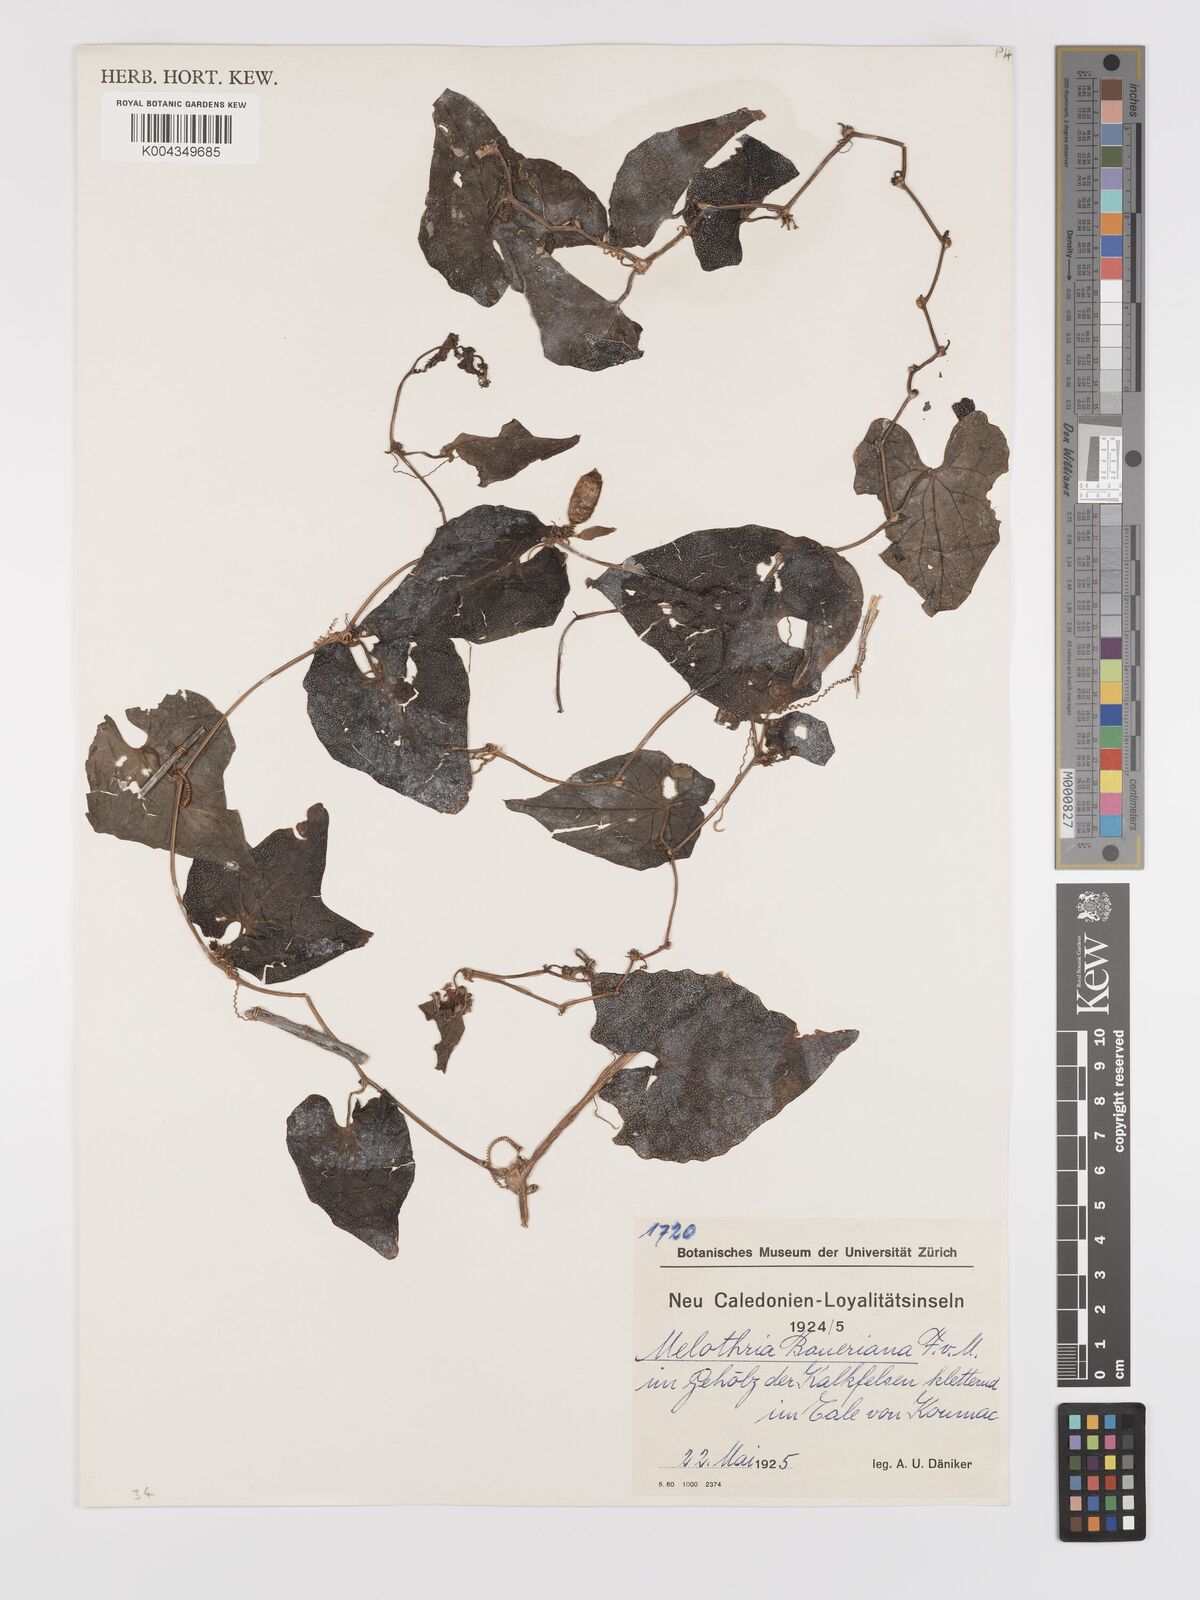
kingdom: Plantae
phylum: Tracheophyta
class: Magnoliopsida
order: Cucurbitales
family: Cucurbitaceae
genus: Zehneria
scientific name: Zehneria mucronata
